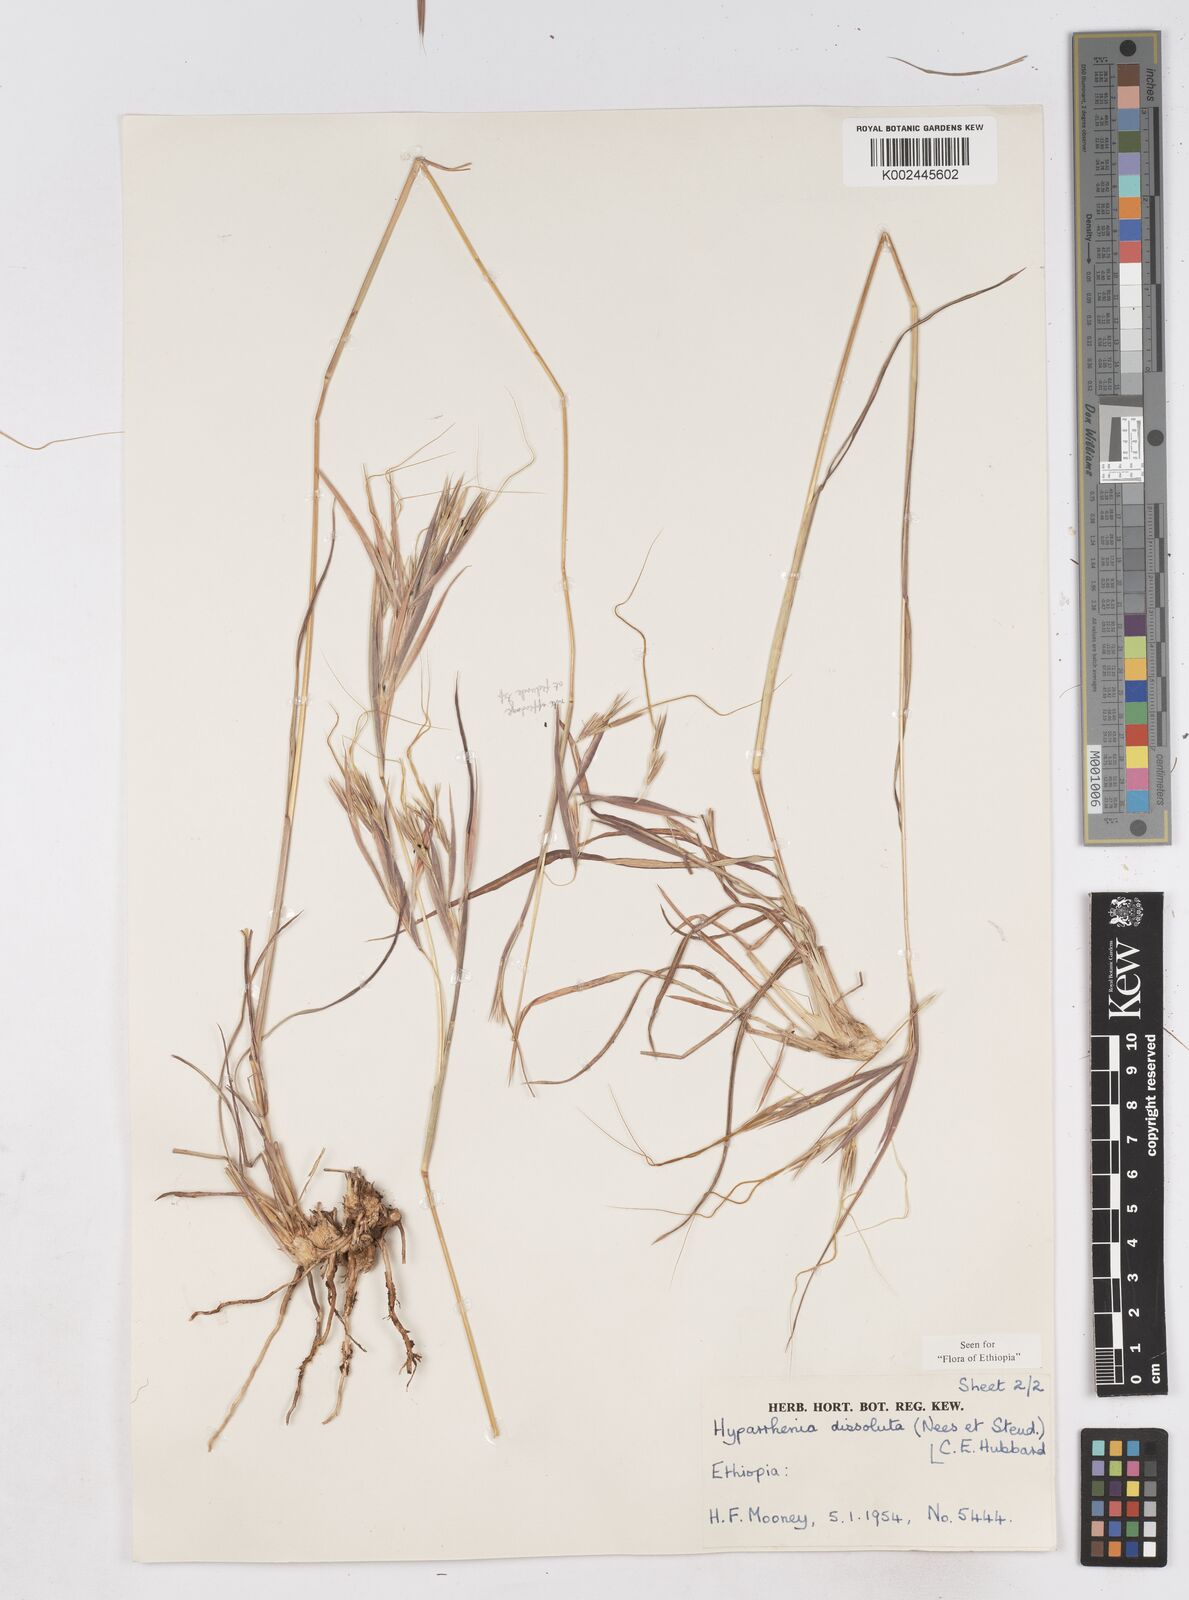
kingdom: Plantae
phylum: Tracheophyta
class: Liliopsida
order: Poales
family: Poaceae
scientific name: Poaceae
